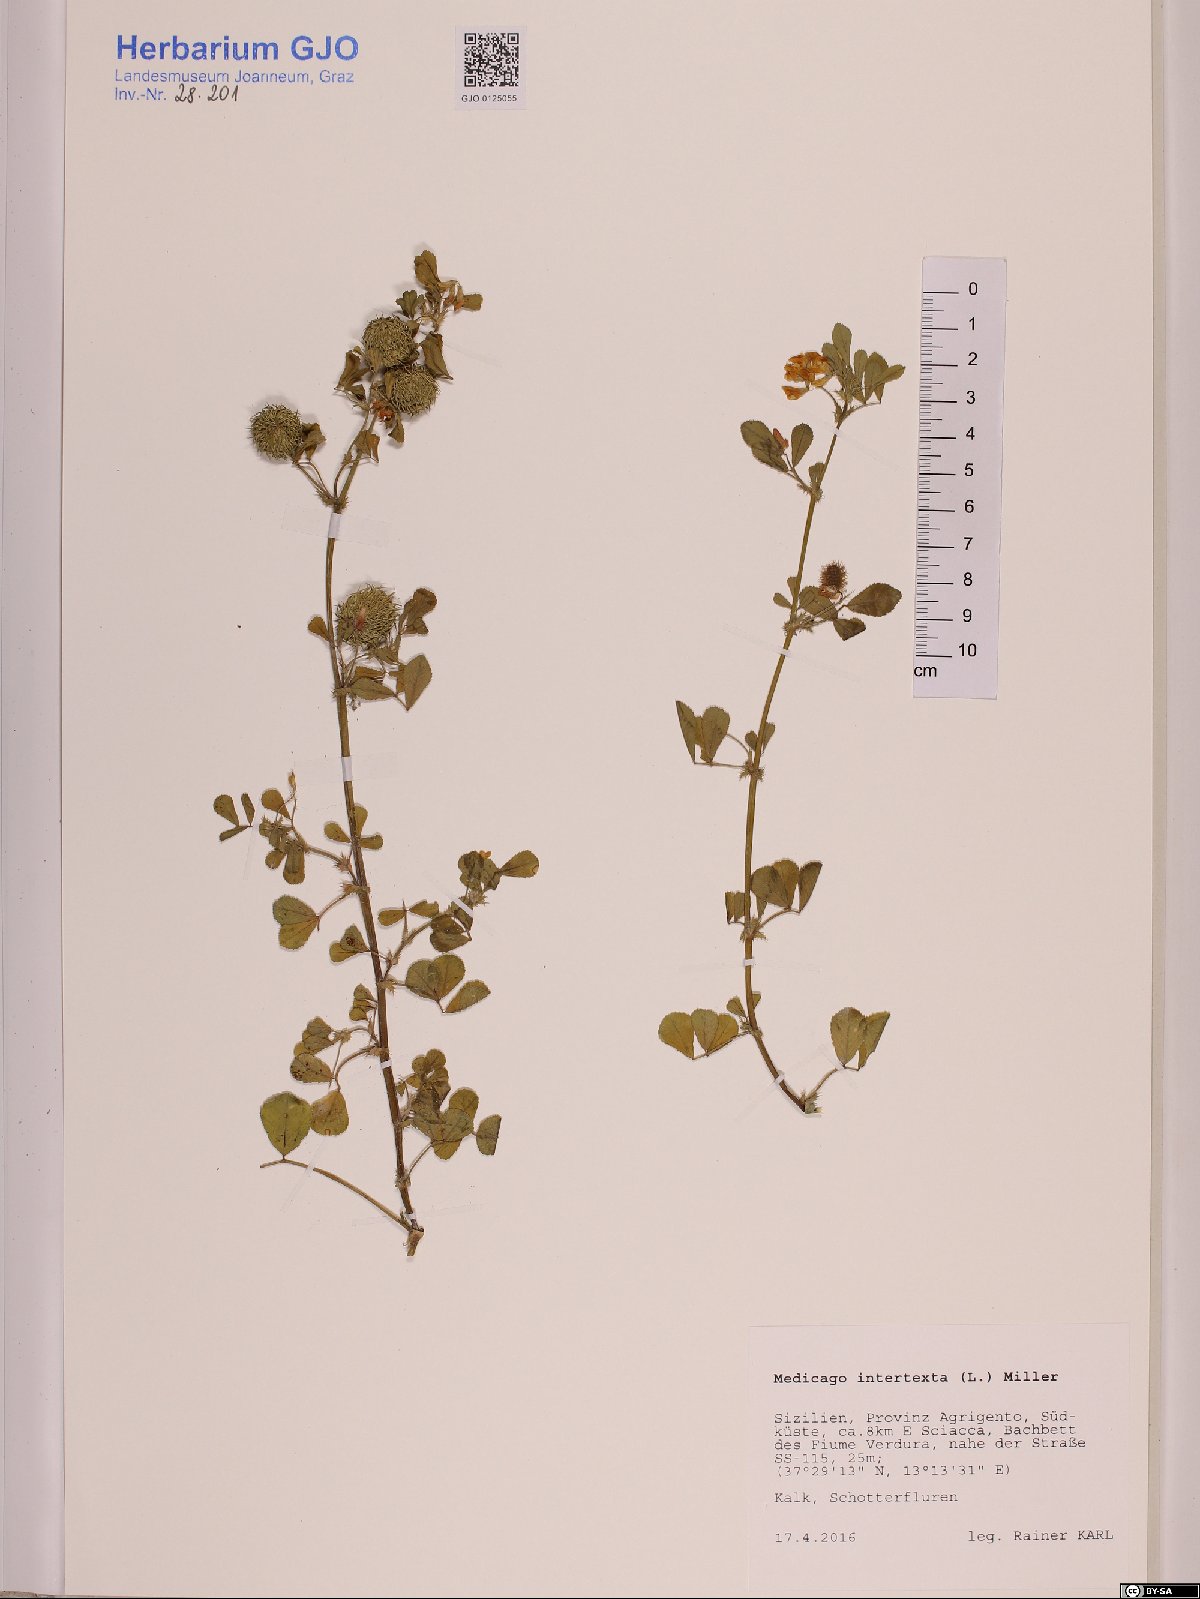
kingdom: Plantae
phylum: Tracheophyta
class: Magnoliopsida
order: Fabales
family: Fabaceae
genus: Medicago
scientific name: Medicago intertexta
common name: Hedgehog medick
